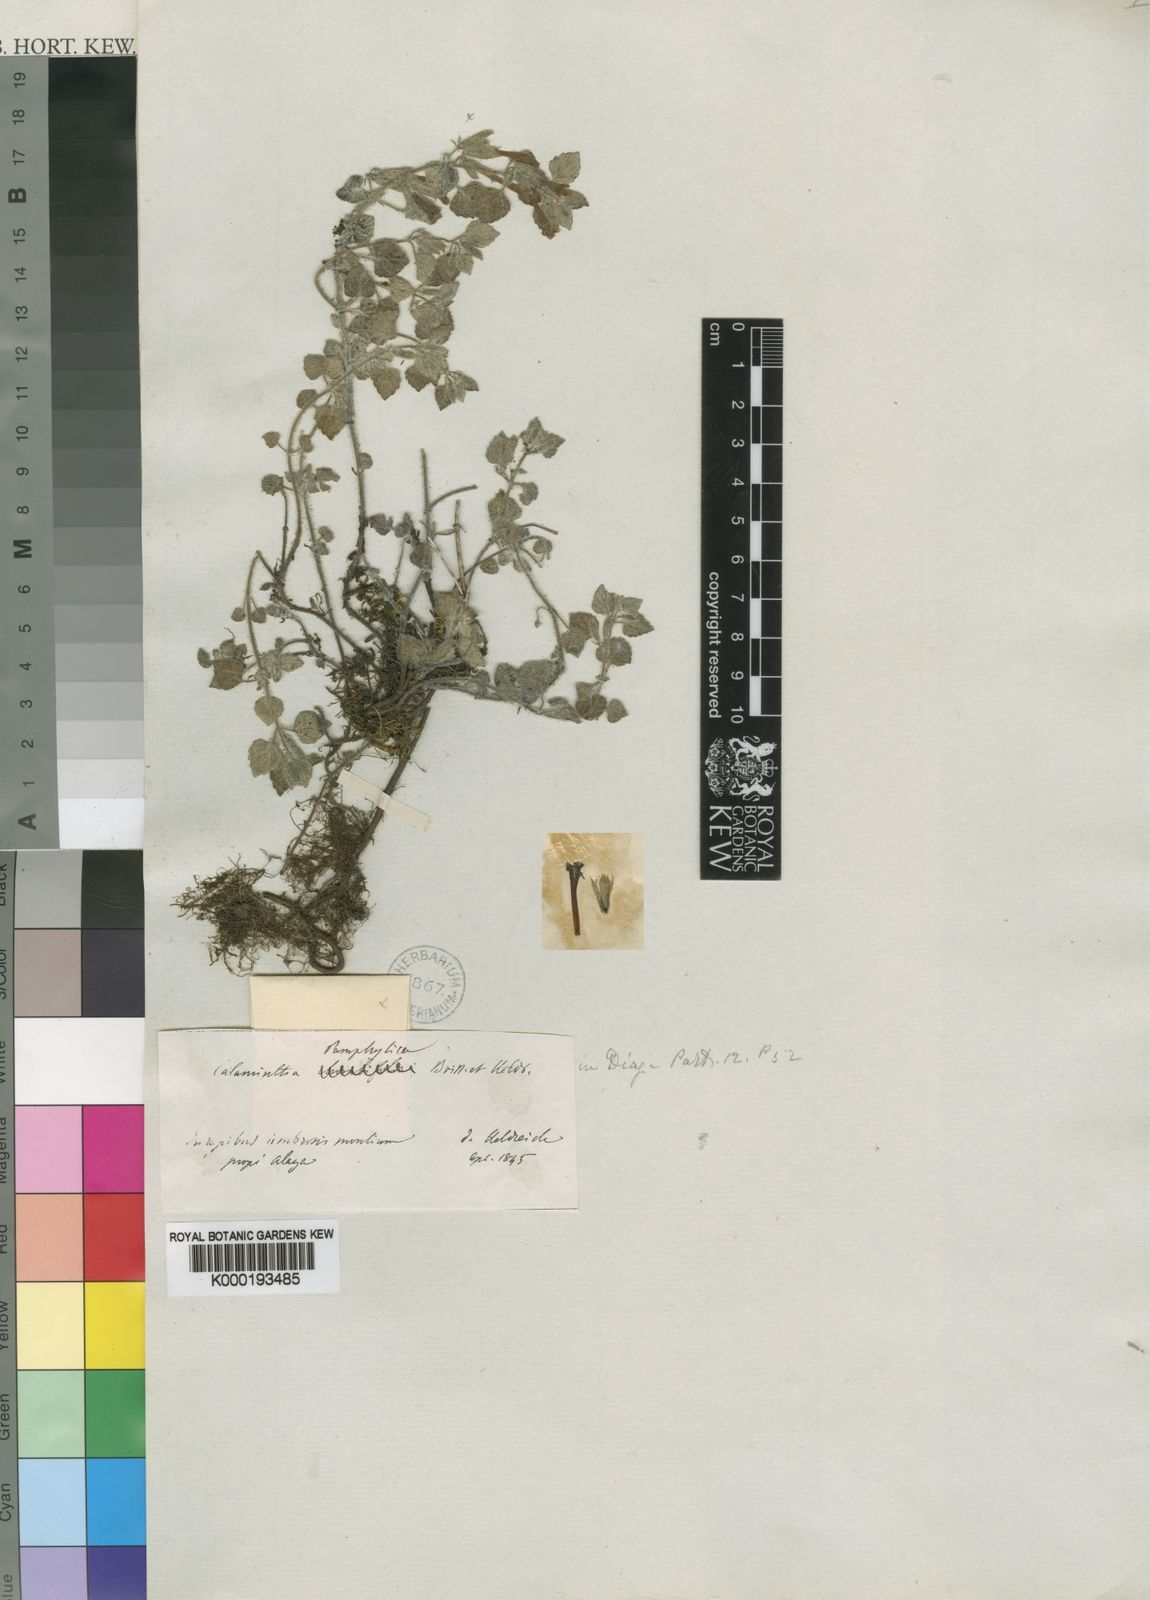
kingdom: Plantae
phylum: Tracheophyta
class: Magnoliopsida
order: Lamiales
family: Lamiaceae
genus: Clinopodium
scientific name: Clinopodium pamphylicum
